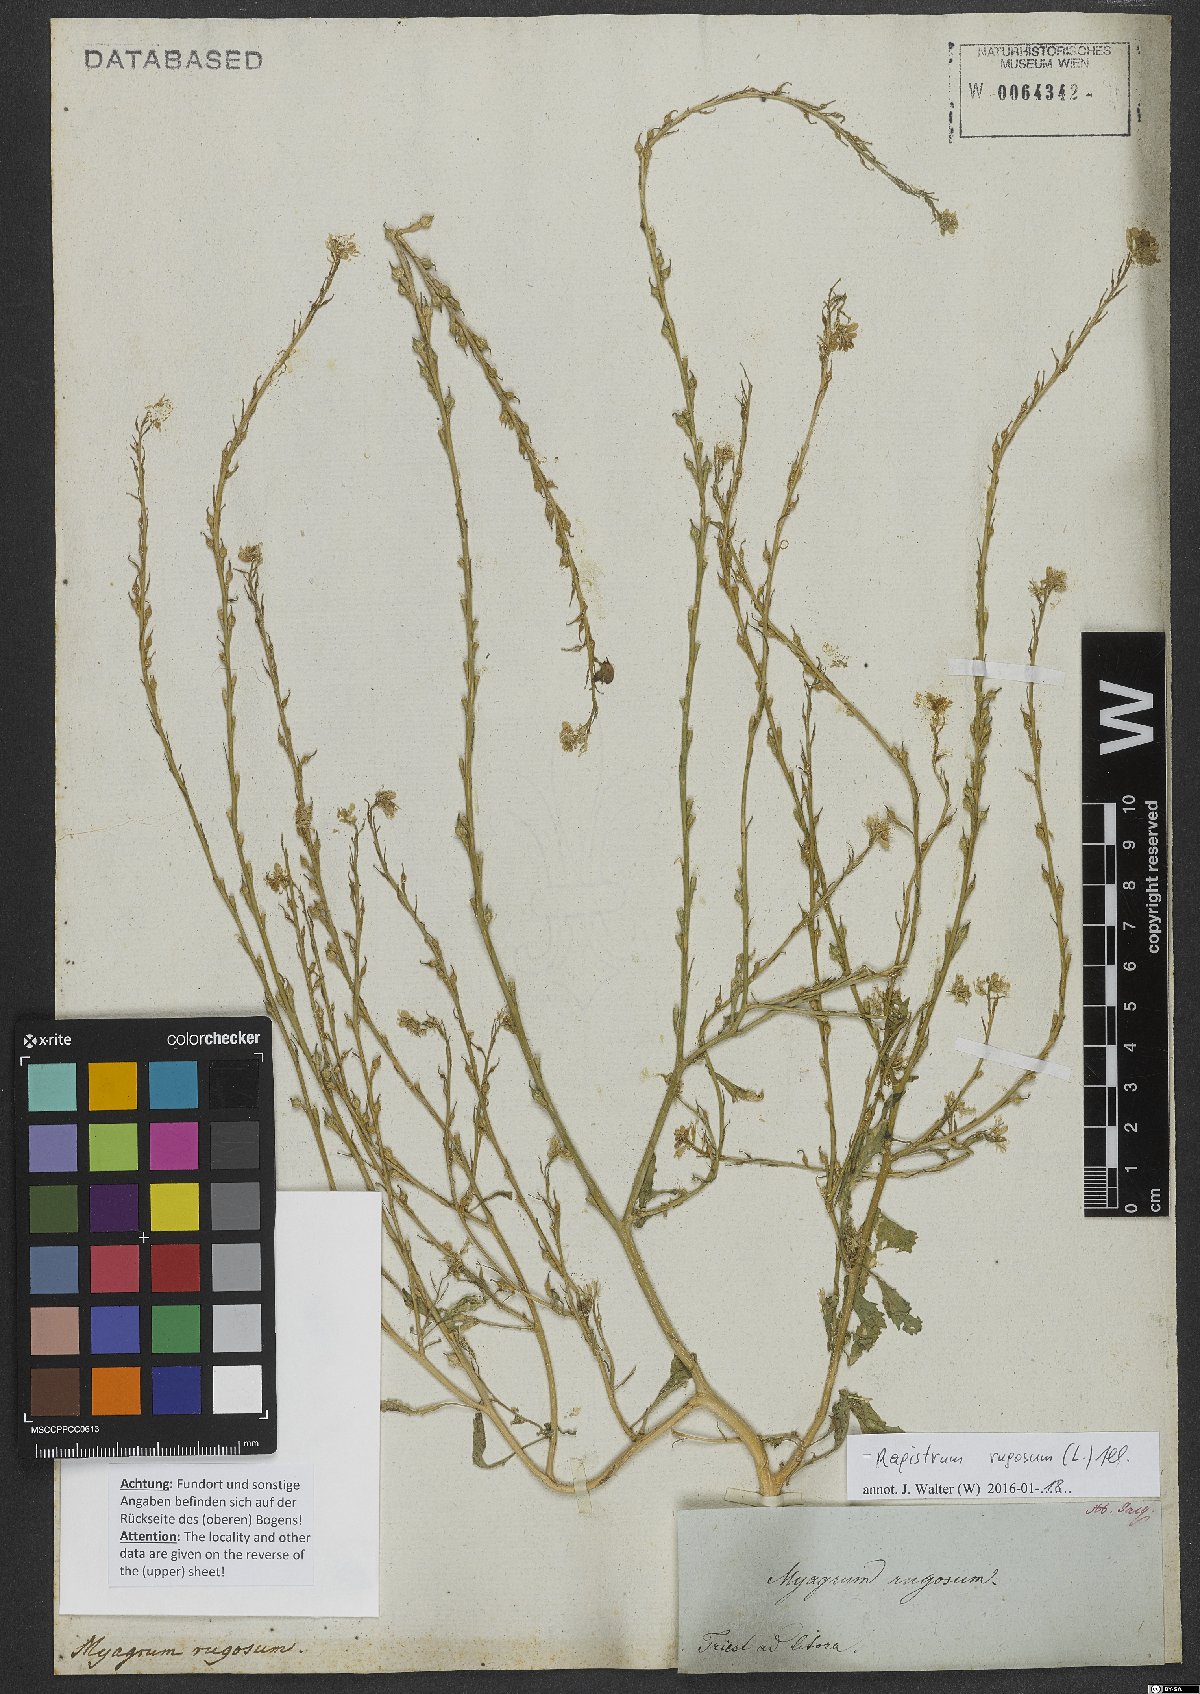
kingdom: Plantae
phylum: Tracheophyta
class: Magnoliopsida
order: Brassicales
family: Brassicaceae
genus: Rapistrum
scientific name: Rapistrum rugosum
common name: Annual bastardcabbage
